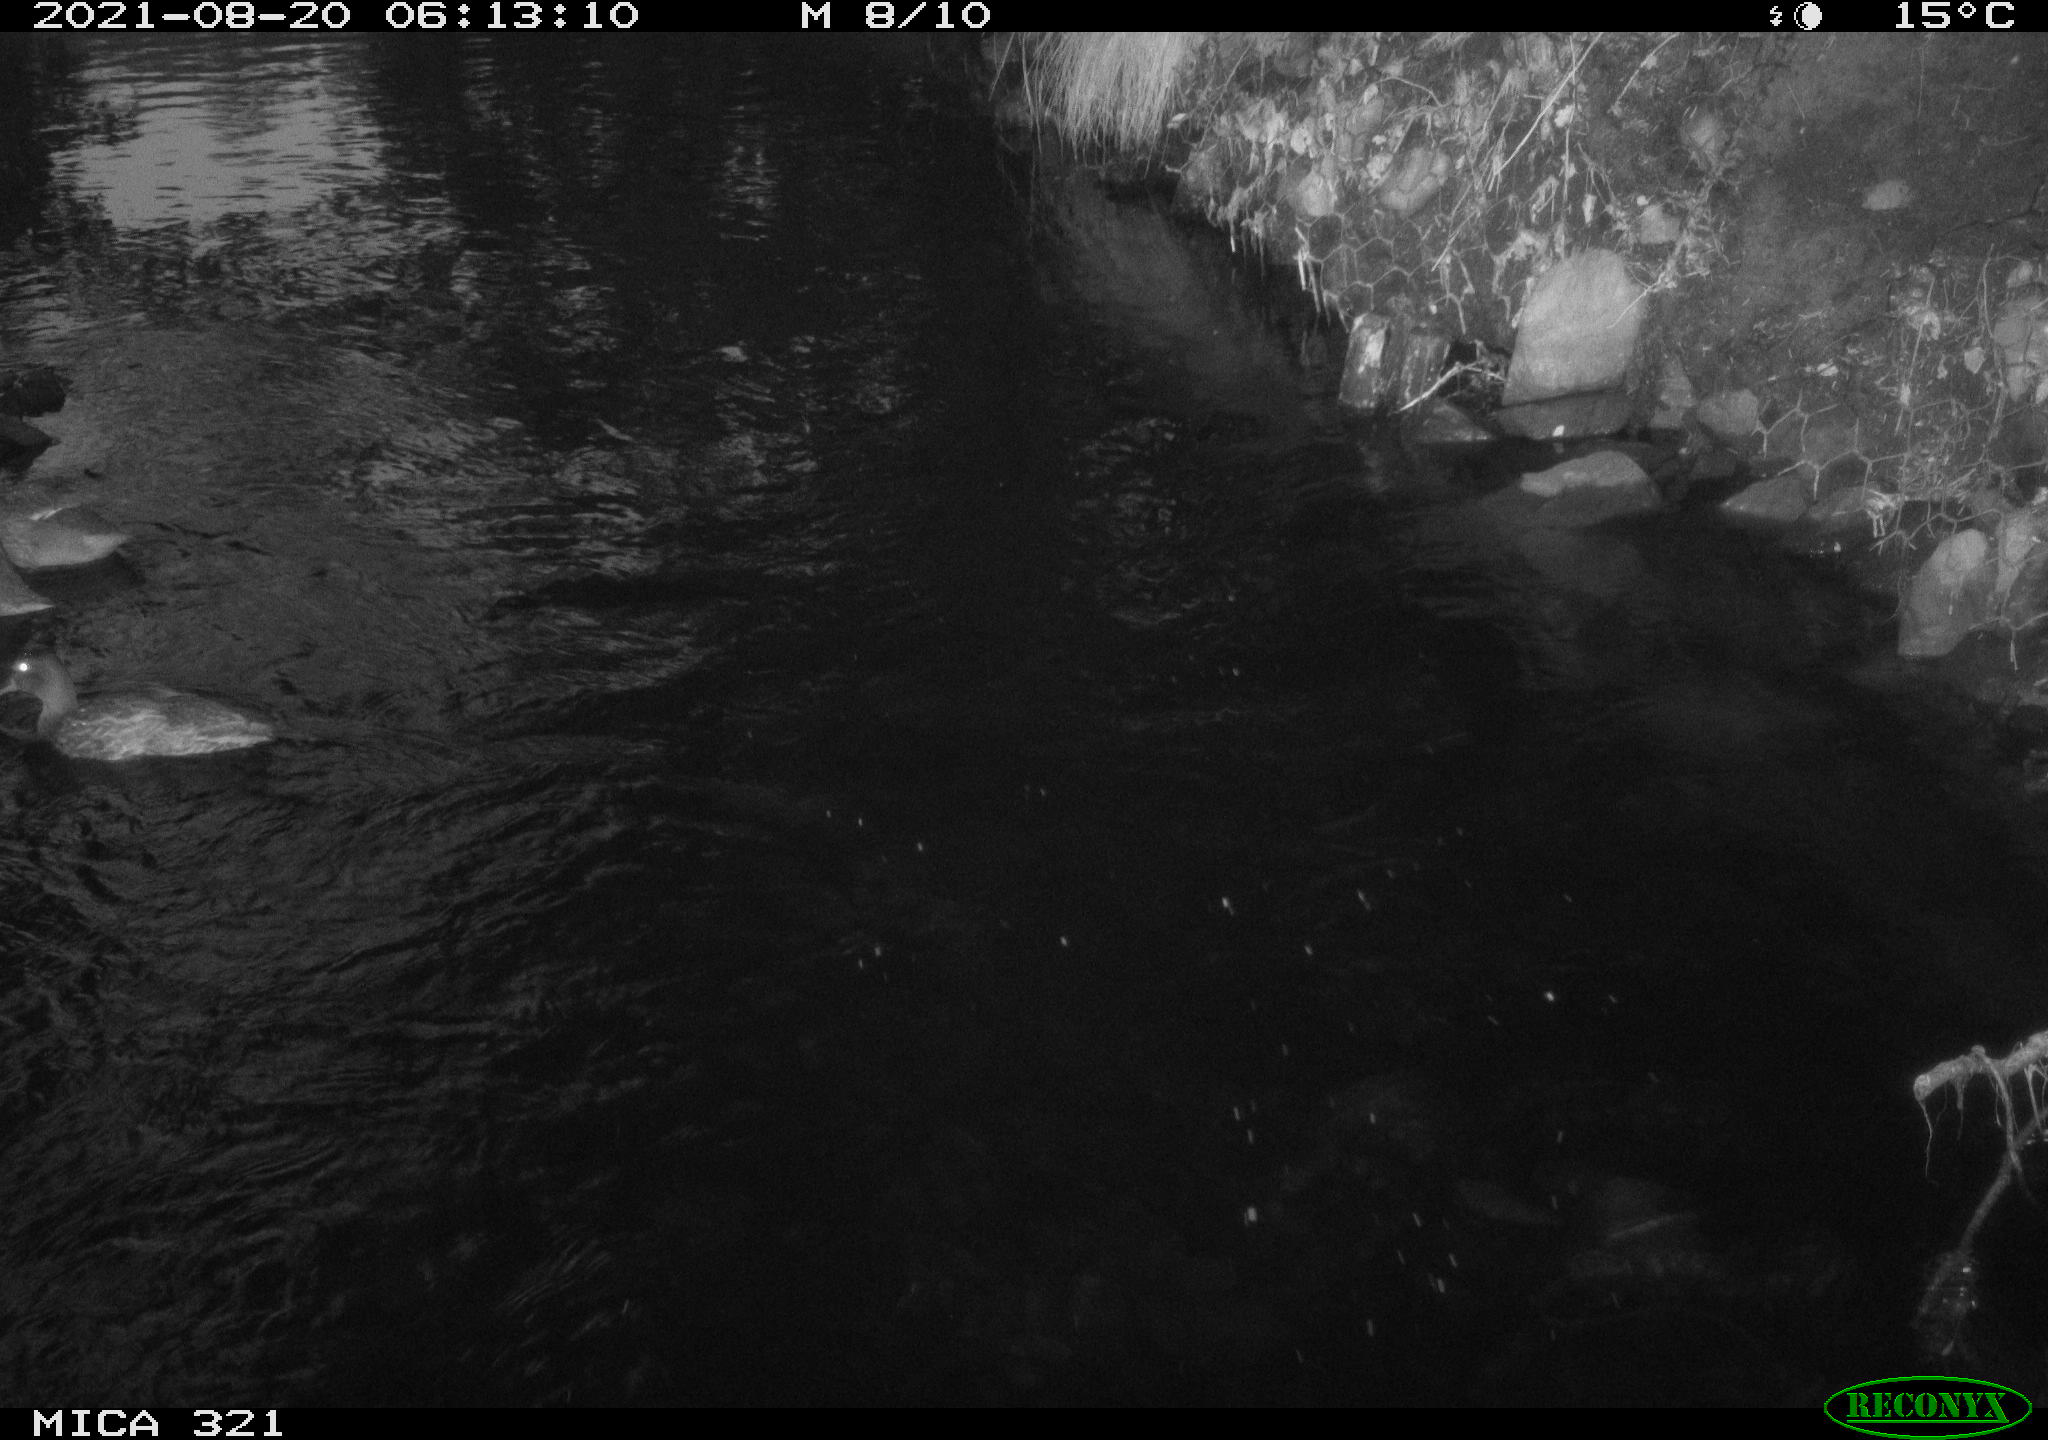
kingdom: Animalia
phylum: Chordata
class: Aves
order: Anseriformes
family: Anatidae
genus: Anas
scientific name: Anas platyrhynchos
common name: Mallard
